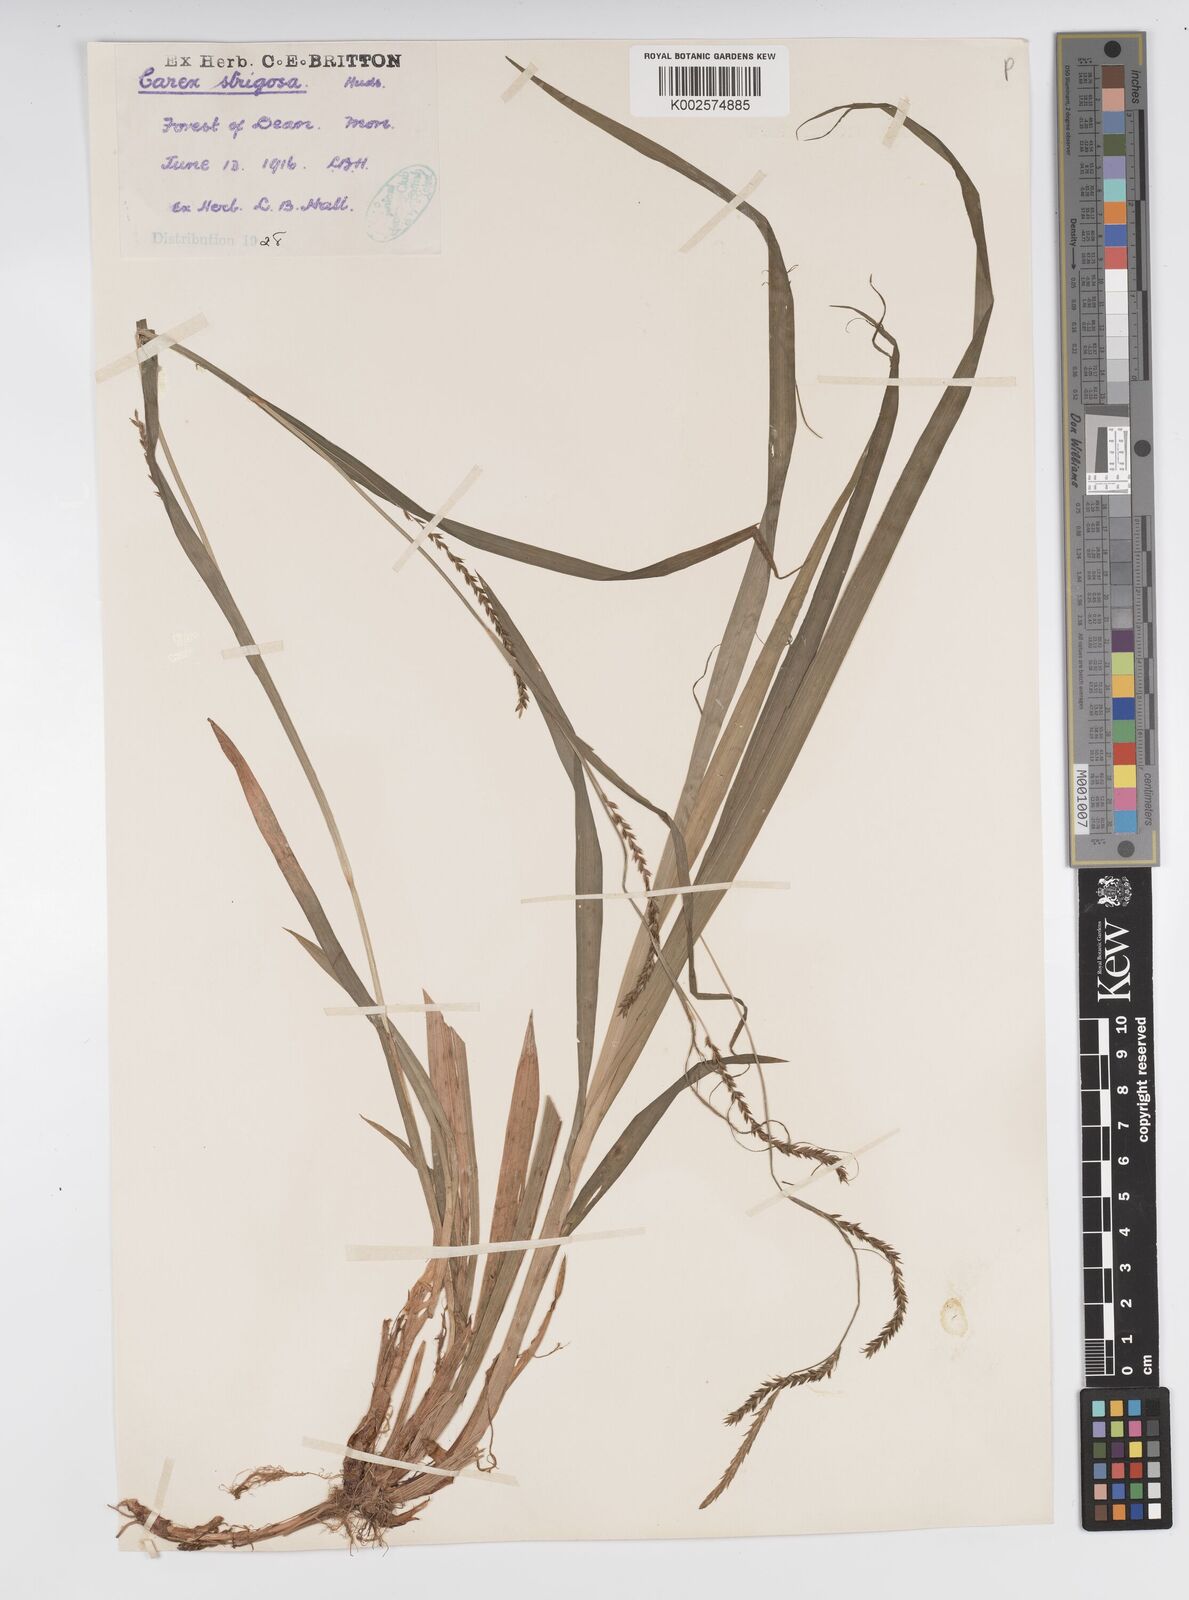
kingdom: Plantae
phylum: Tracheophyta
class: Liliopsida
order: Poales
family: Cyperaceae
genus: Carex
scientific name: Carex strigosa
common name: Thin-spiked wood-sedge
